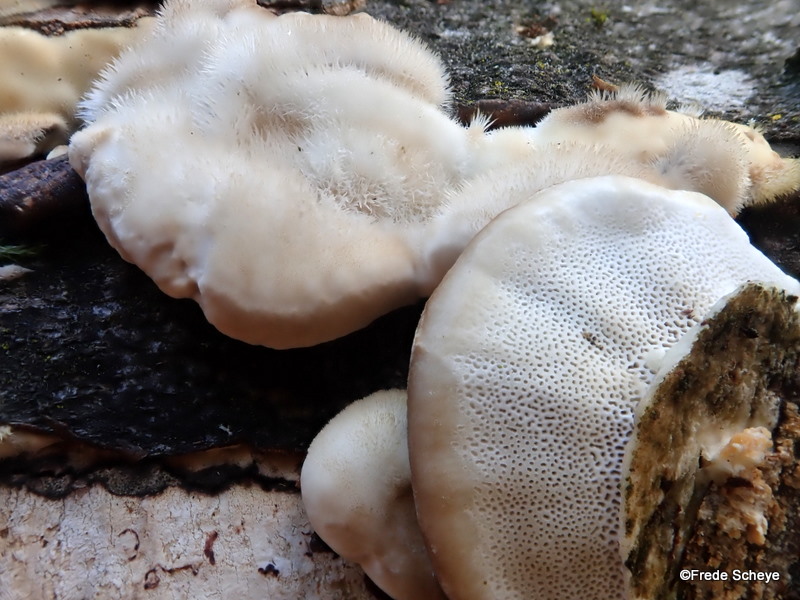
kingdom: Fungi
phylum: Basidiomycota
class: Agaricomycetes
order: Polyporales
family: Polyporaceae
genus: Trametes
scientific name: Trametes hirsuta
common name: håret læderporesvamp
